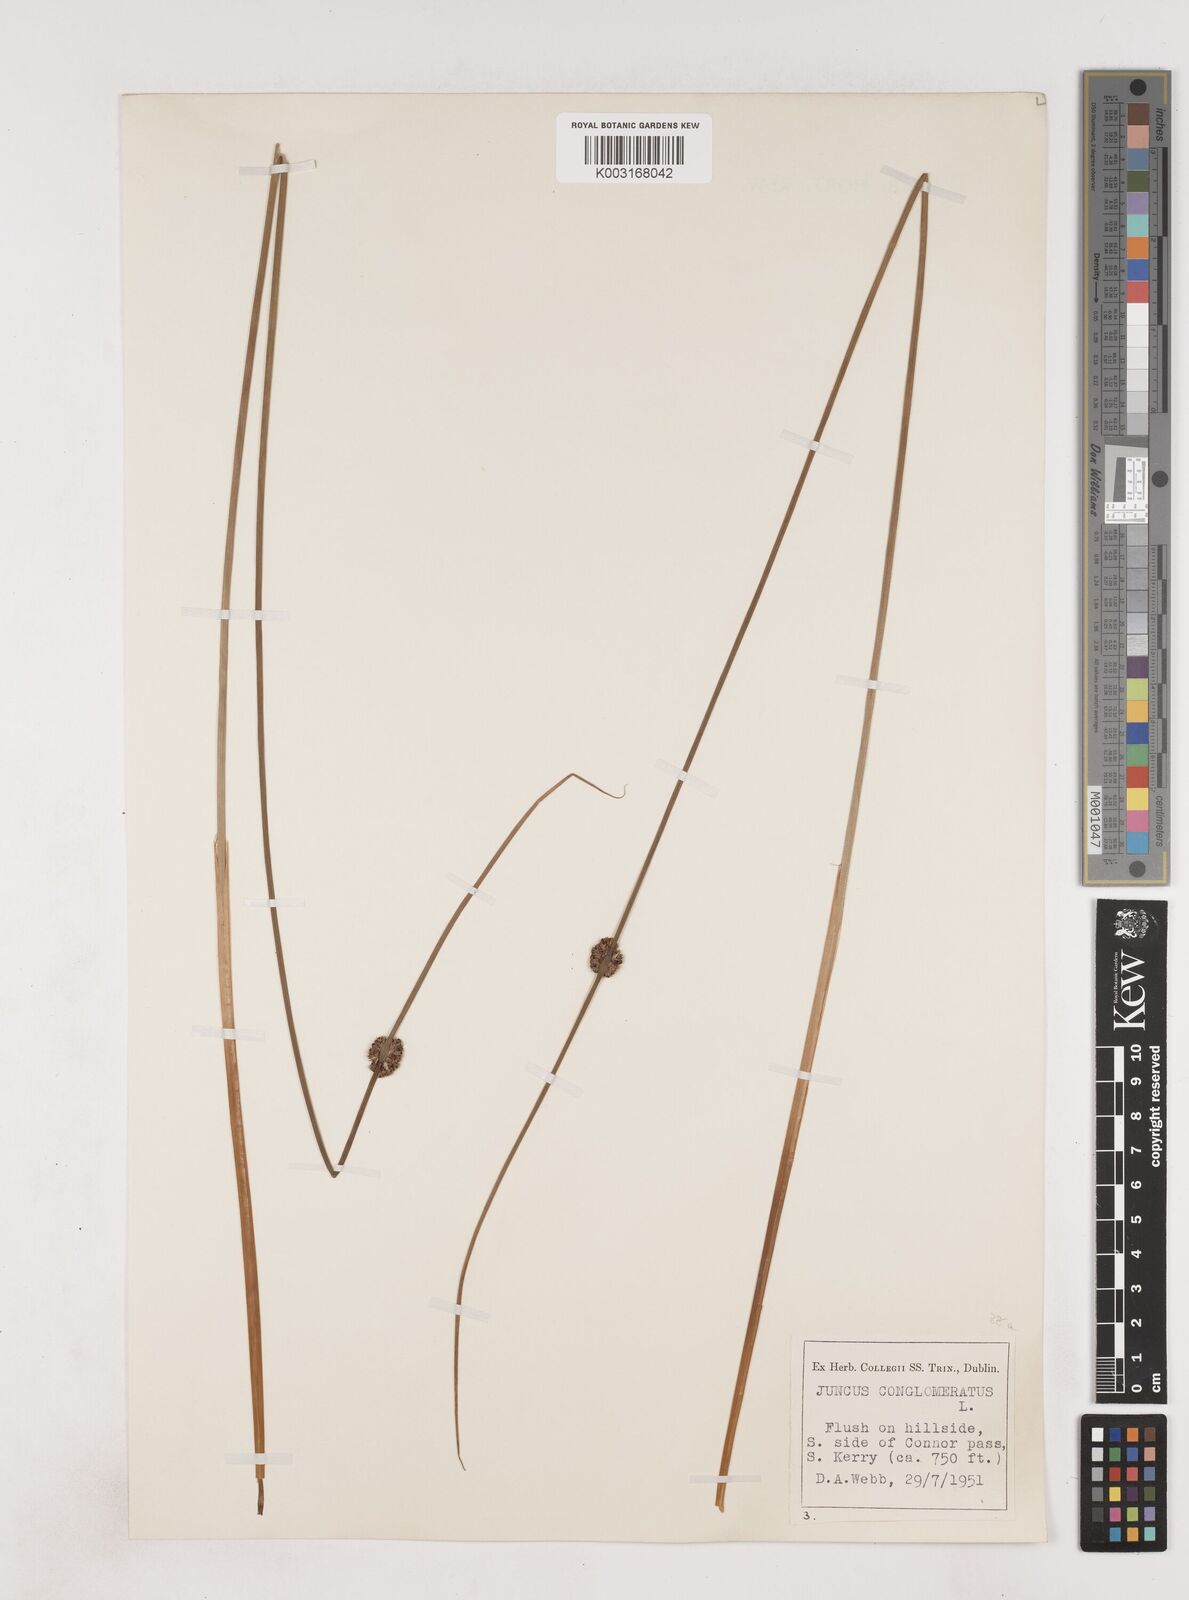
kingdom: Plantae
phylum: Tracheophyta
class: Liliopsida
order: Poales
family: Juncaceae
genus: Juncus
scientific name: Juncus conglomeratus
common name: Compact rush
